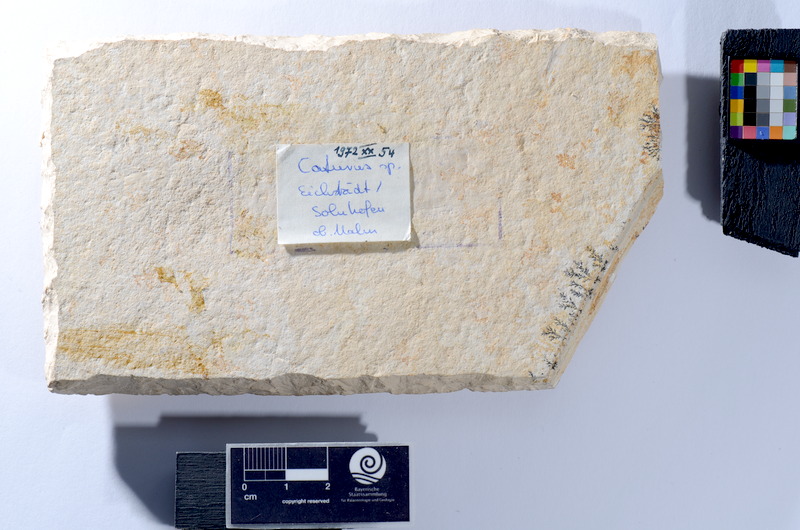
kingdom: Animalia
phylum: Chordata
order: Amiiformes
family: Caturidae
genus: Caturus
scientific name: Caturus
